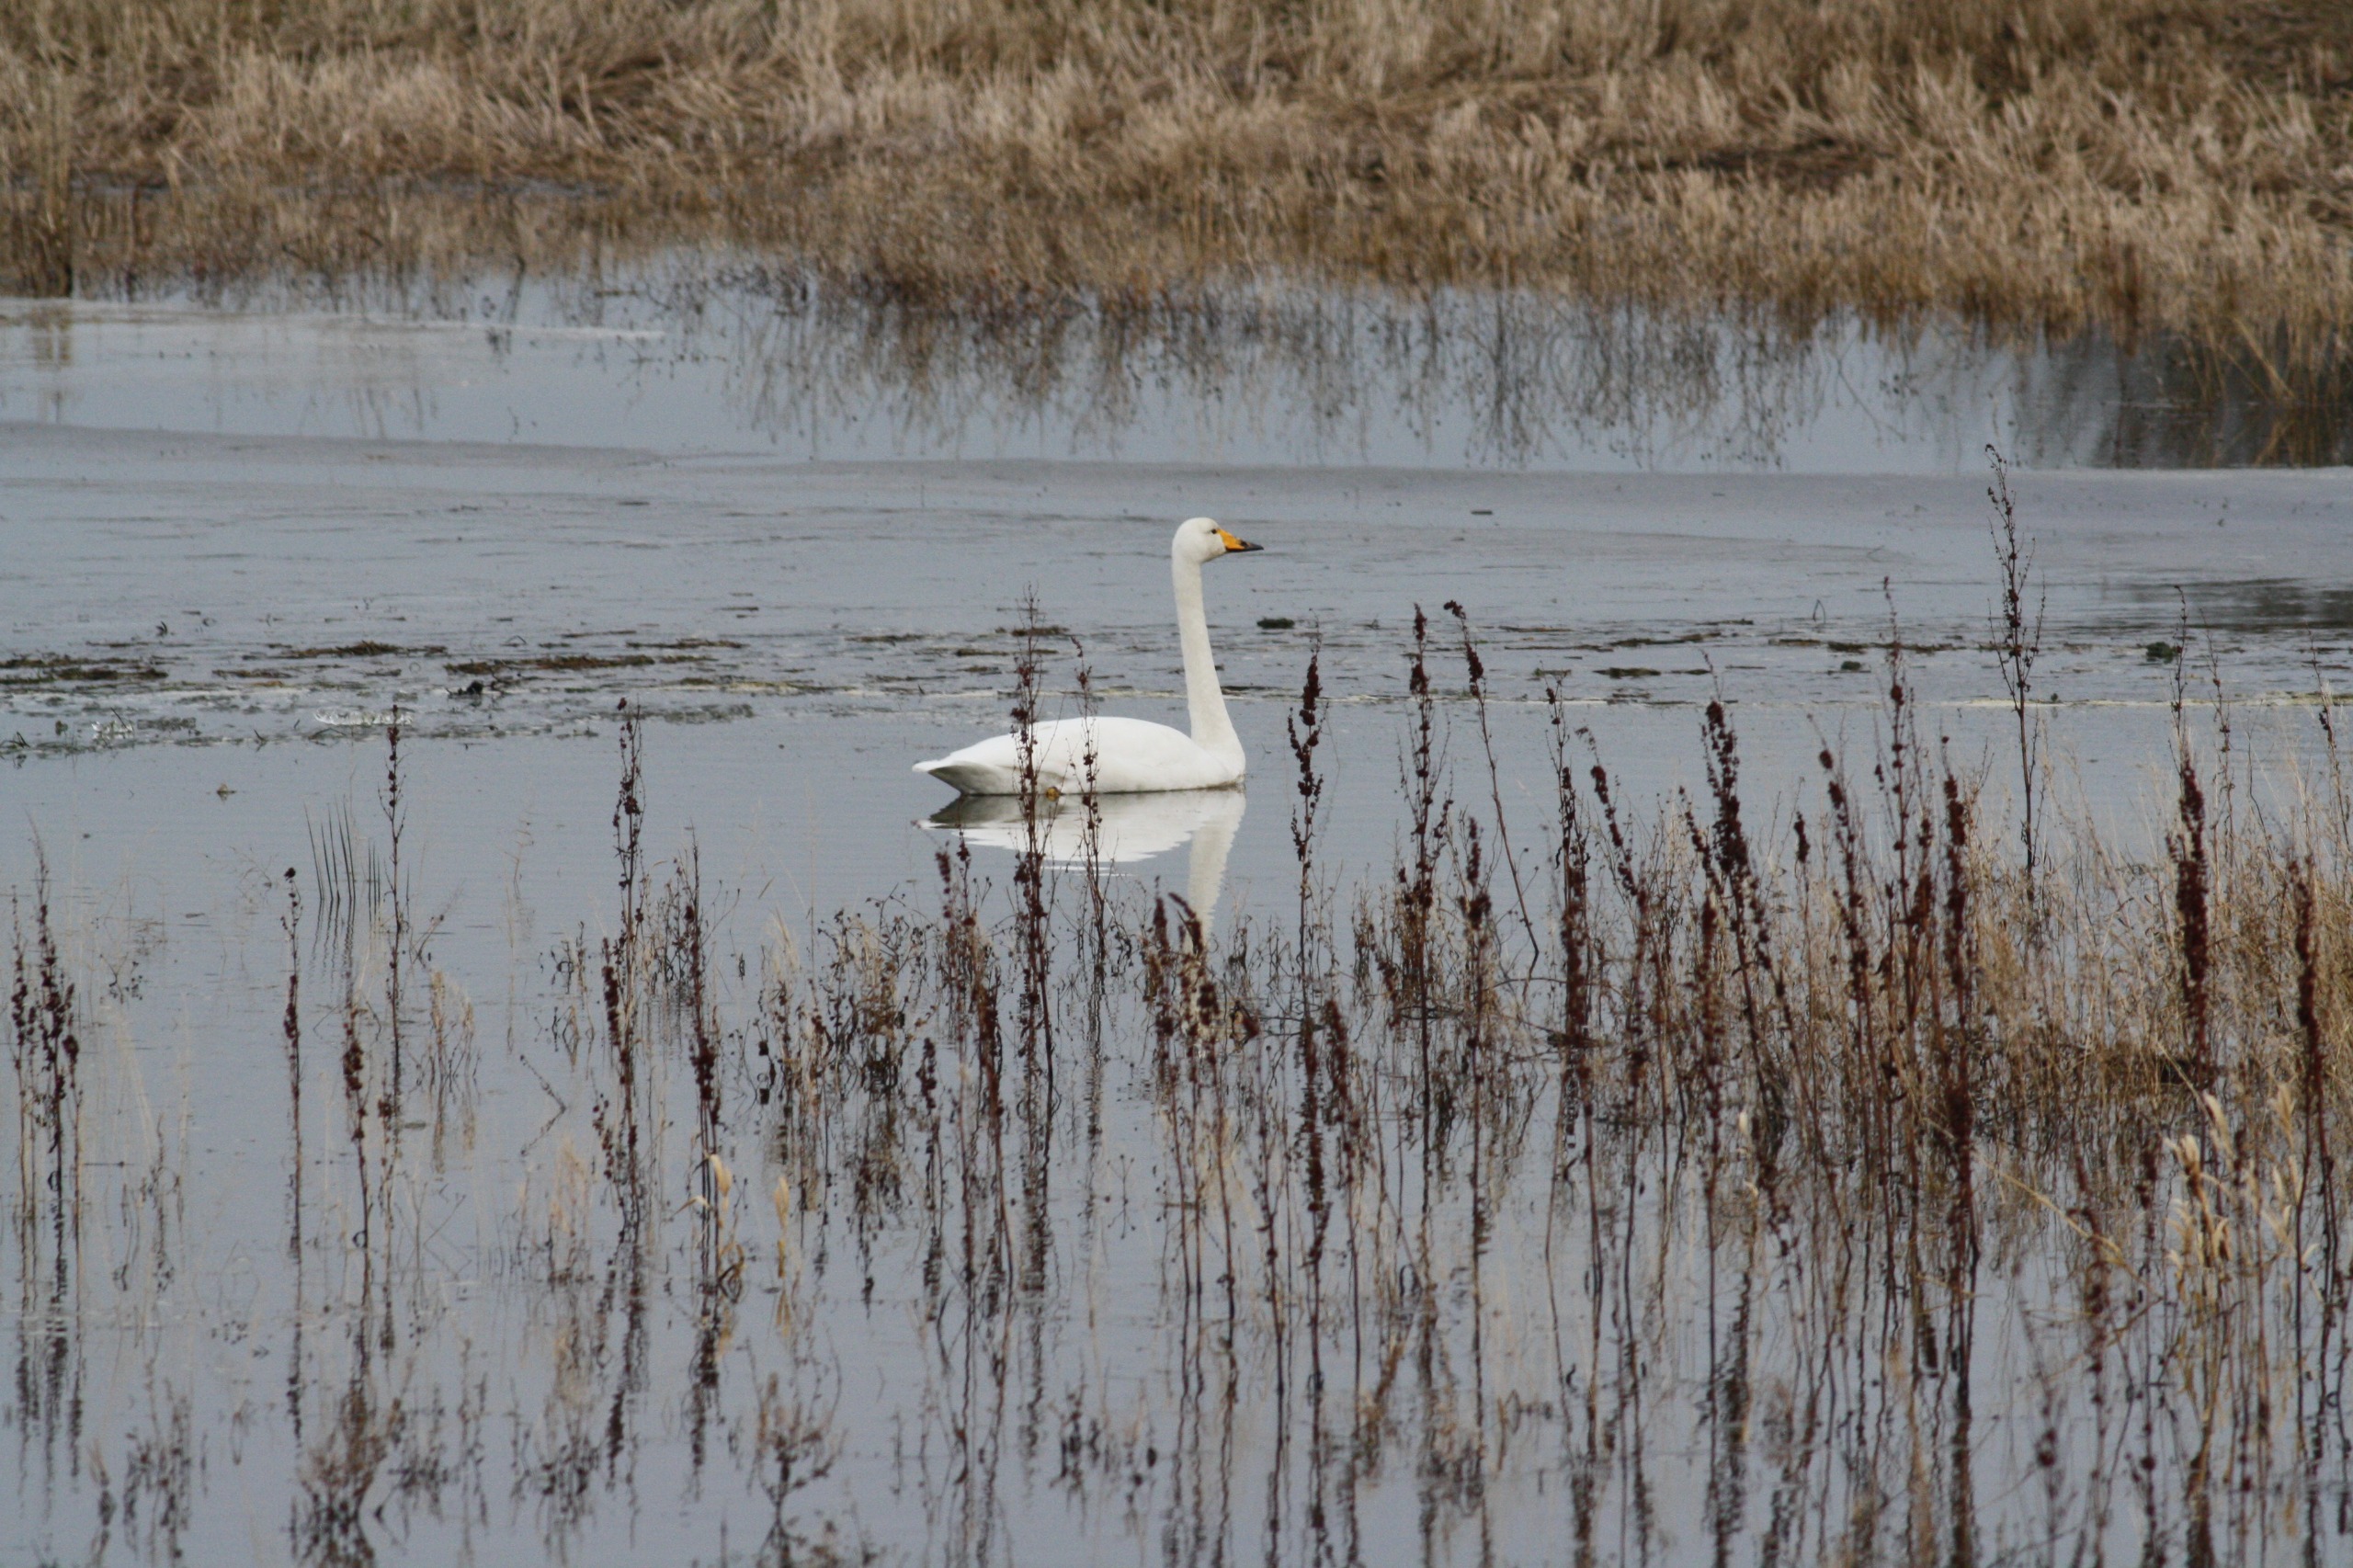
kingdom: Animalia
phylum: Chordata
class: Aves
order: Anseriformes
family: Anatidae
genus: Cygnus
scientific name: Cygnus cygnus
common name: Sangsvane
